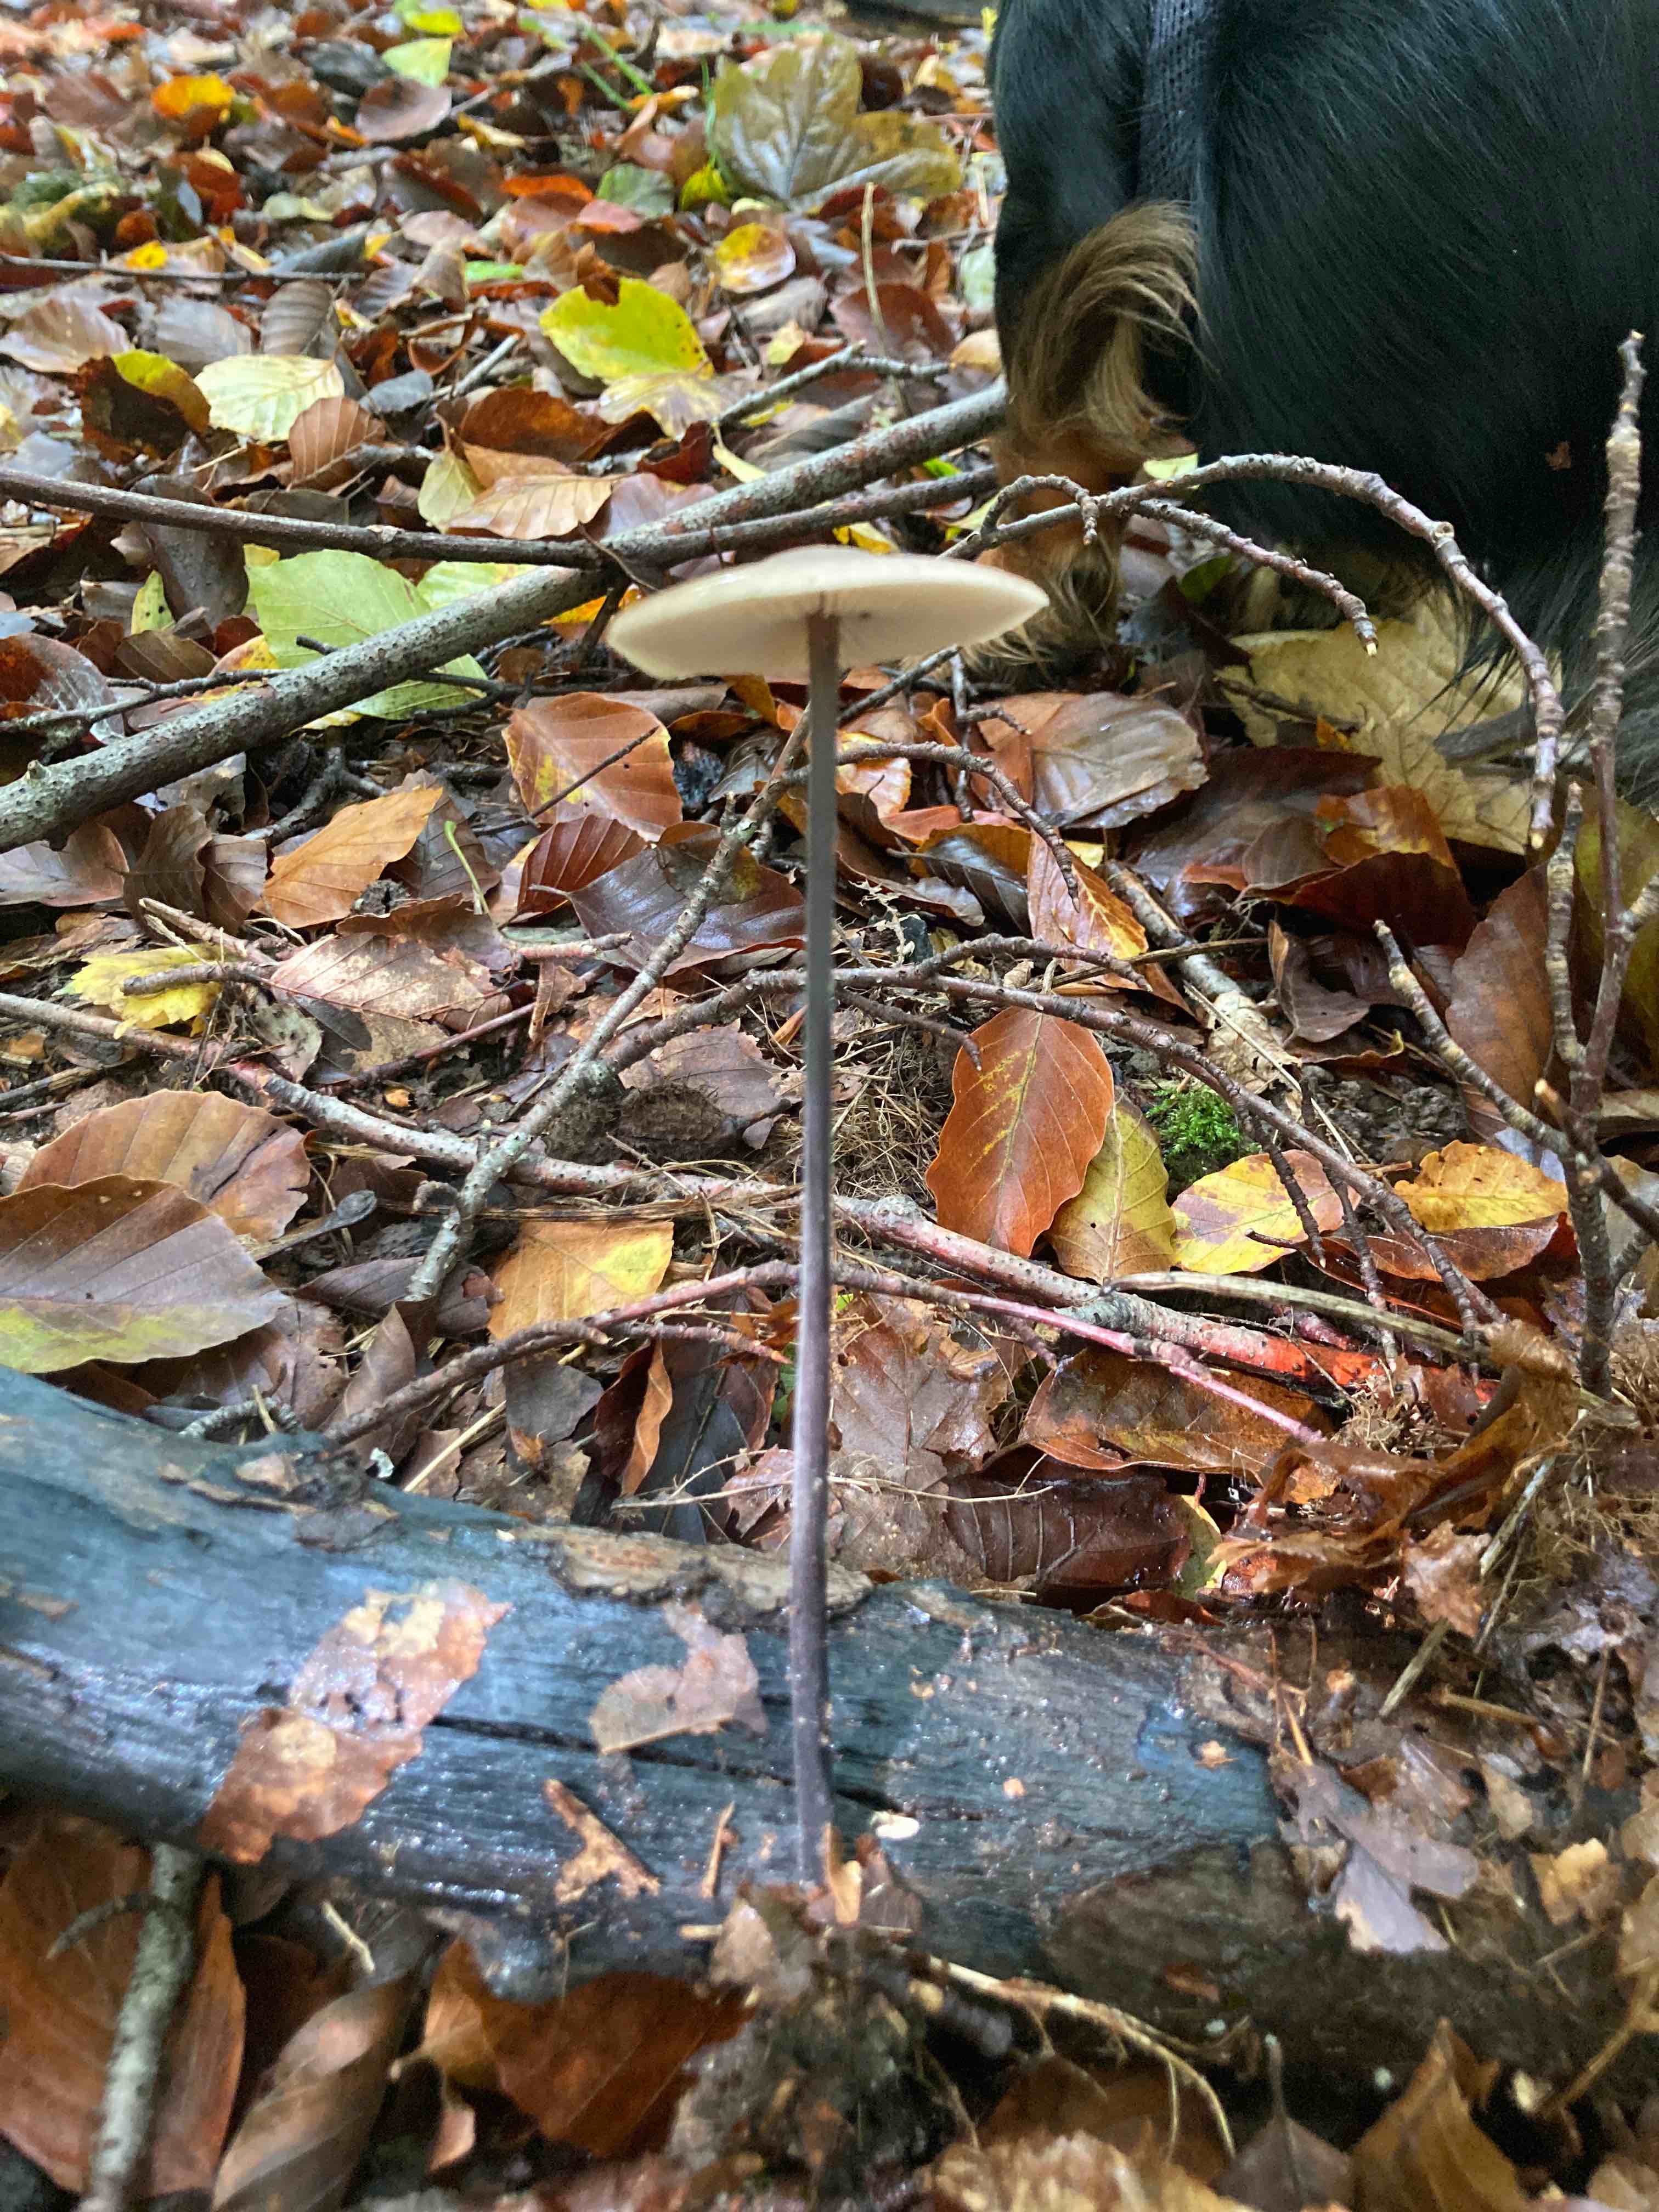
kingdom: Fungi
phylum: Basidiomycota
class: Agaricomycetes
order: Agaricales
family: Omphalotaceae
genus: Mycetinis
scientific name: Mycetinis alliaceus
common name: stor løghat
